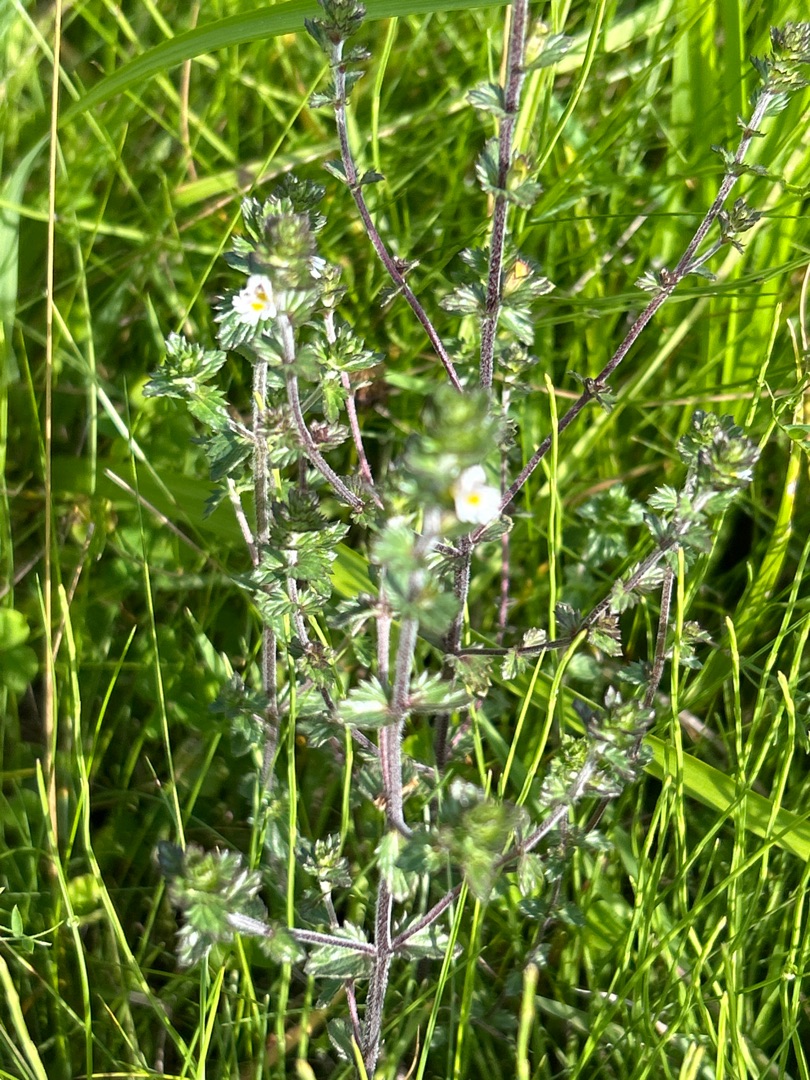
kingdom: Plantae
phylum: Tracheophyta
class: Magnoliopsida
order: Lamiales
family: Orobanchaceae
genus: Euphrasia
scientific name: Euphrasia nemorosa
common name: Kort øjentrøst
